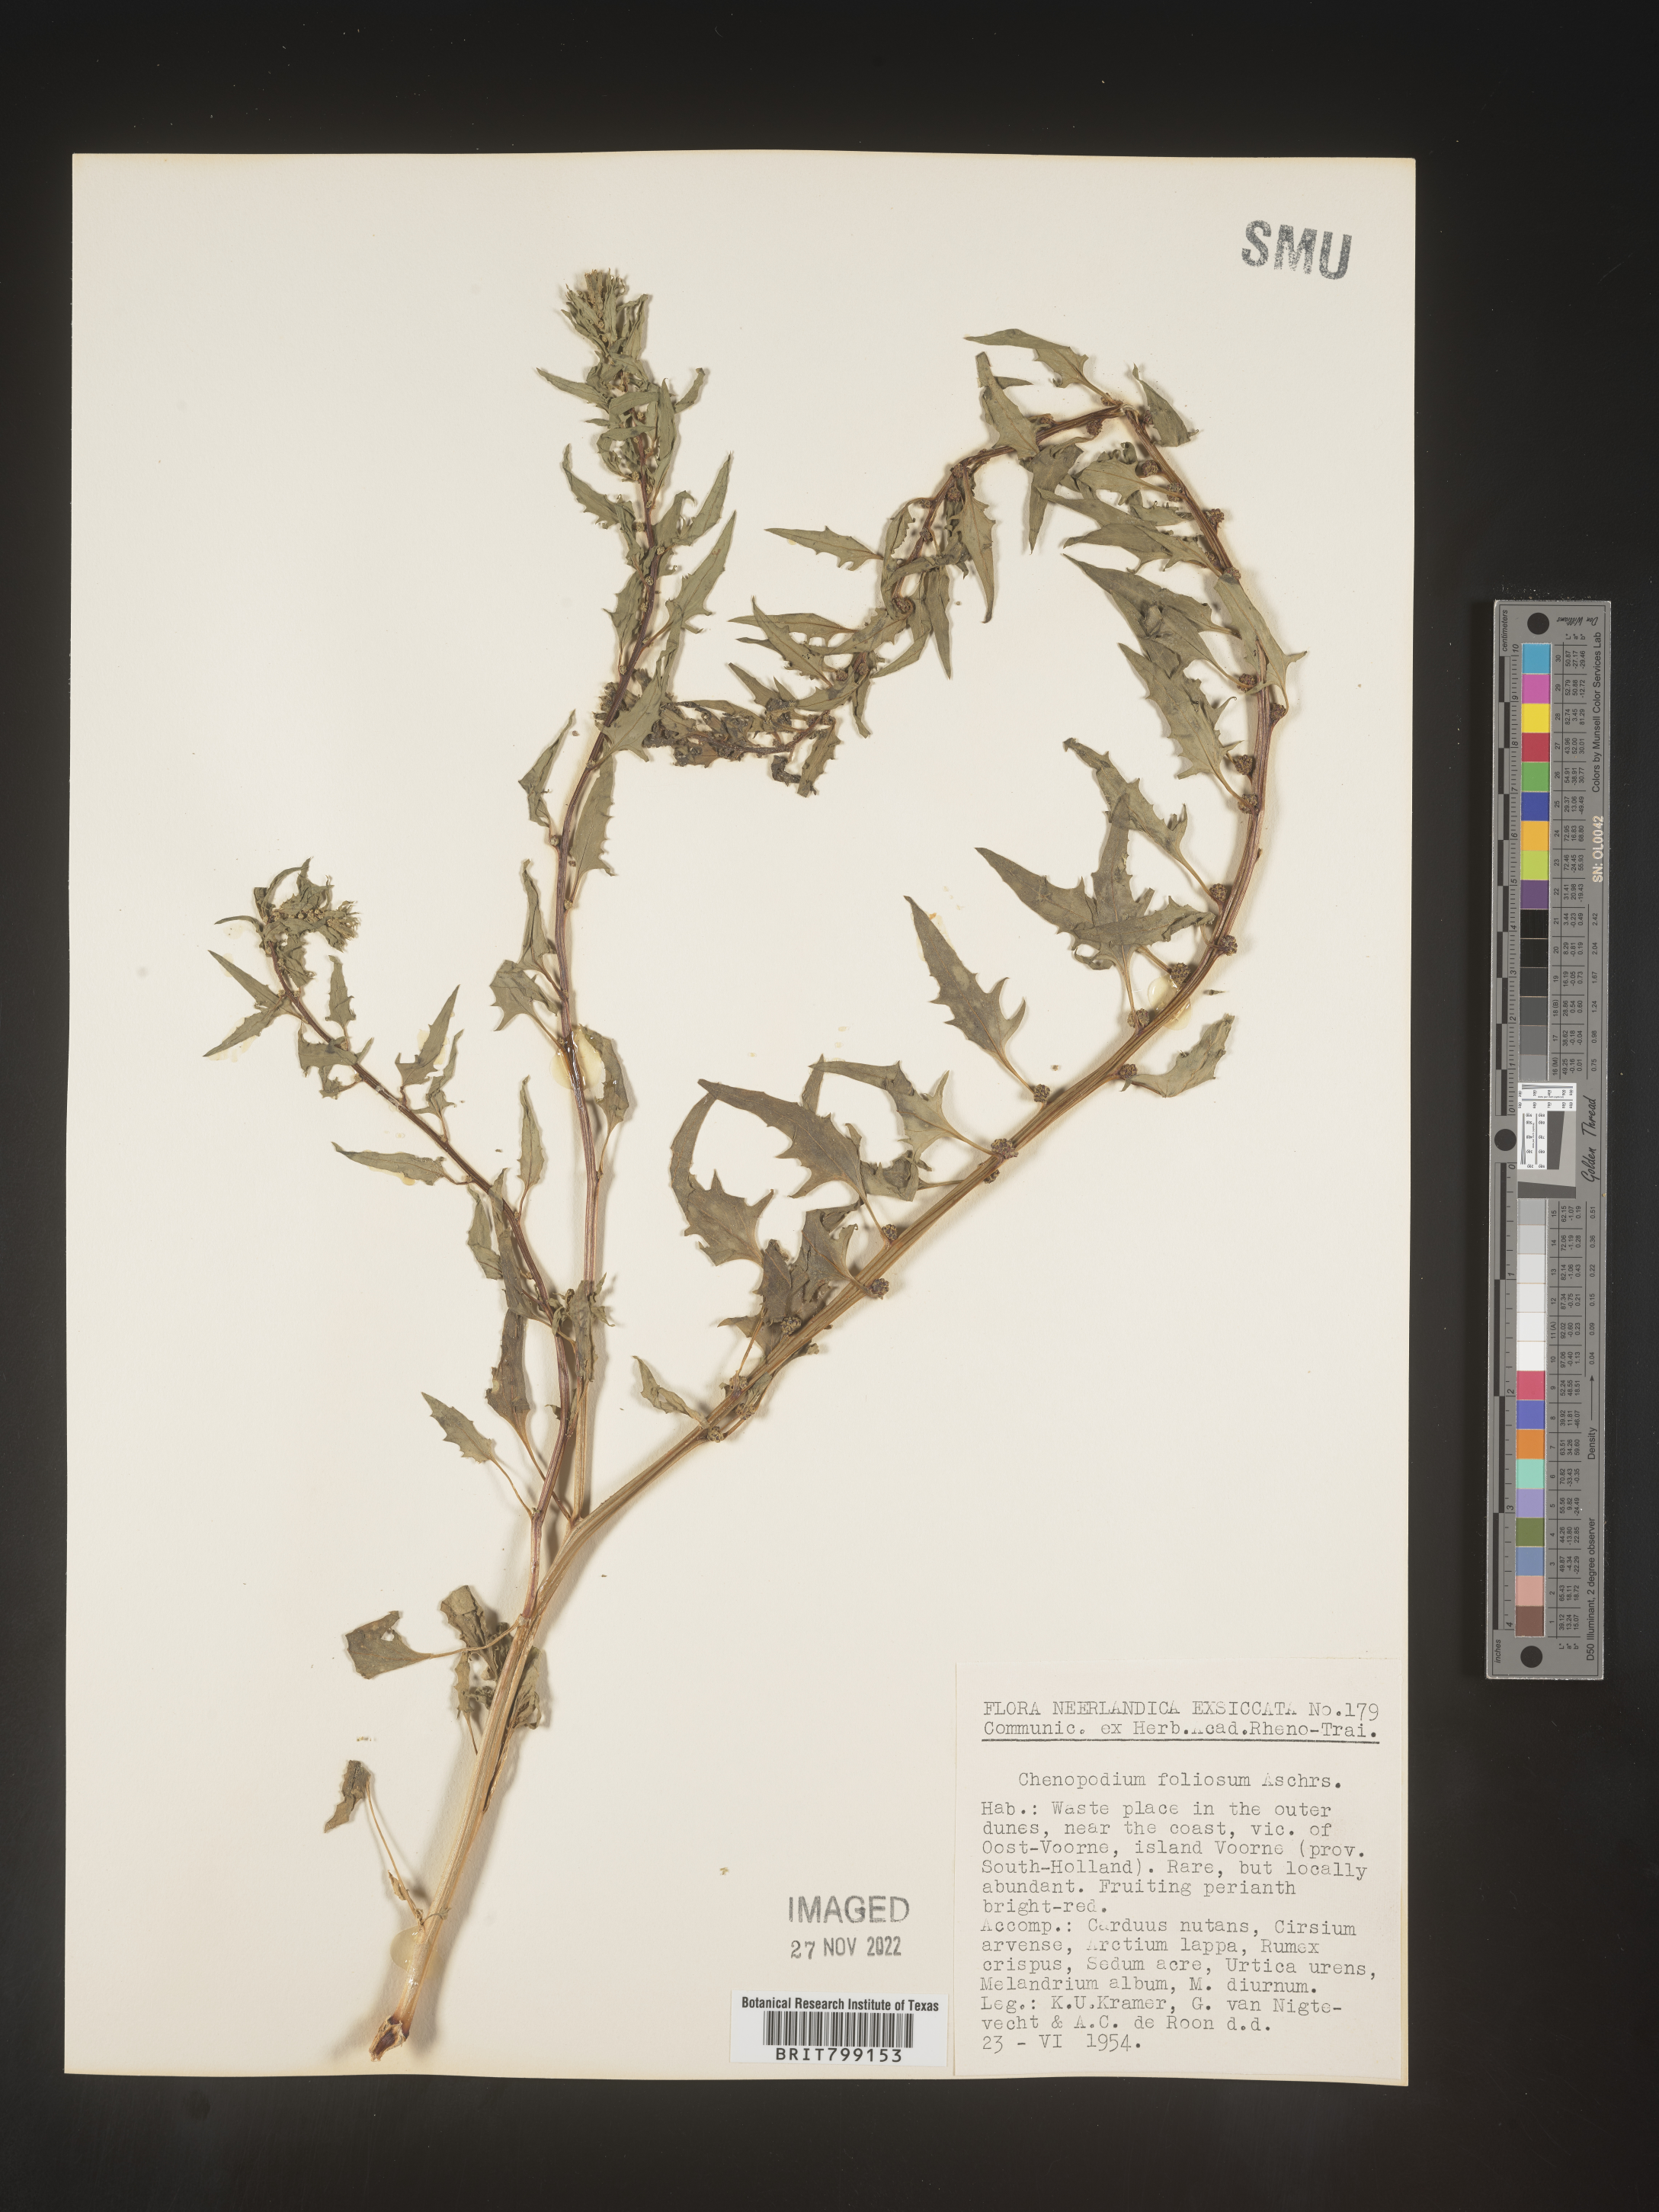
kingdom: Plantae
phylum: Tracheophyta
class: Magnoliopsida
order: Caryophyllales
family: Amaranthaceae
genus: Chenopodium
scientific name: Chenopodium
